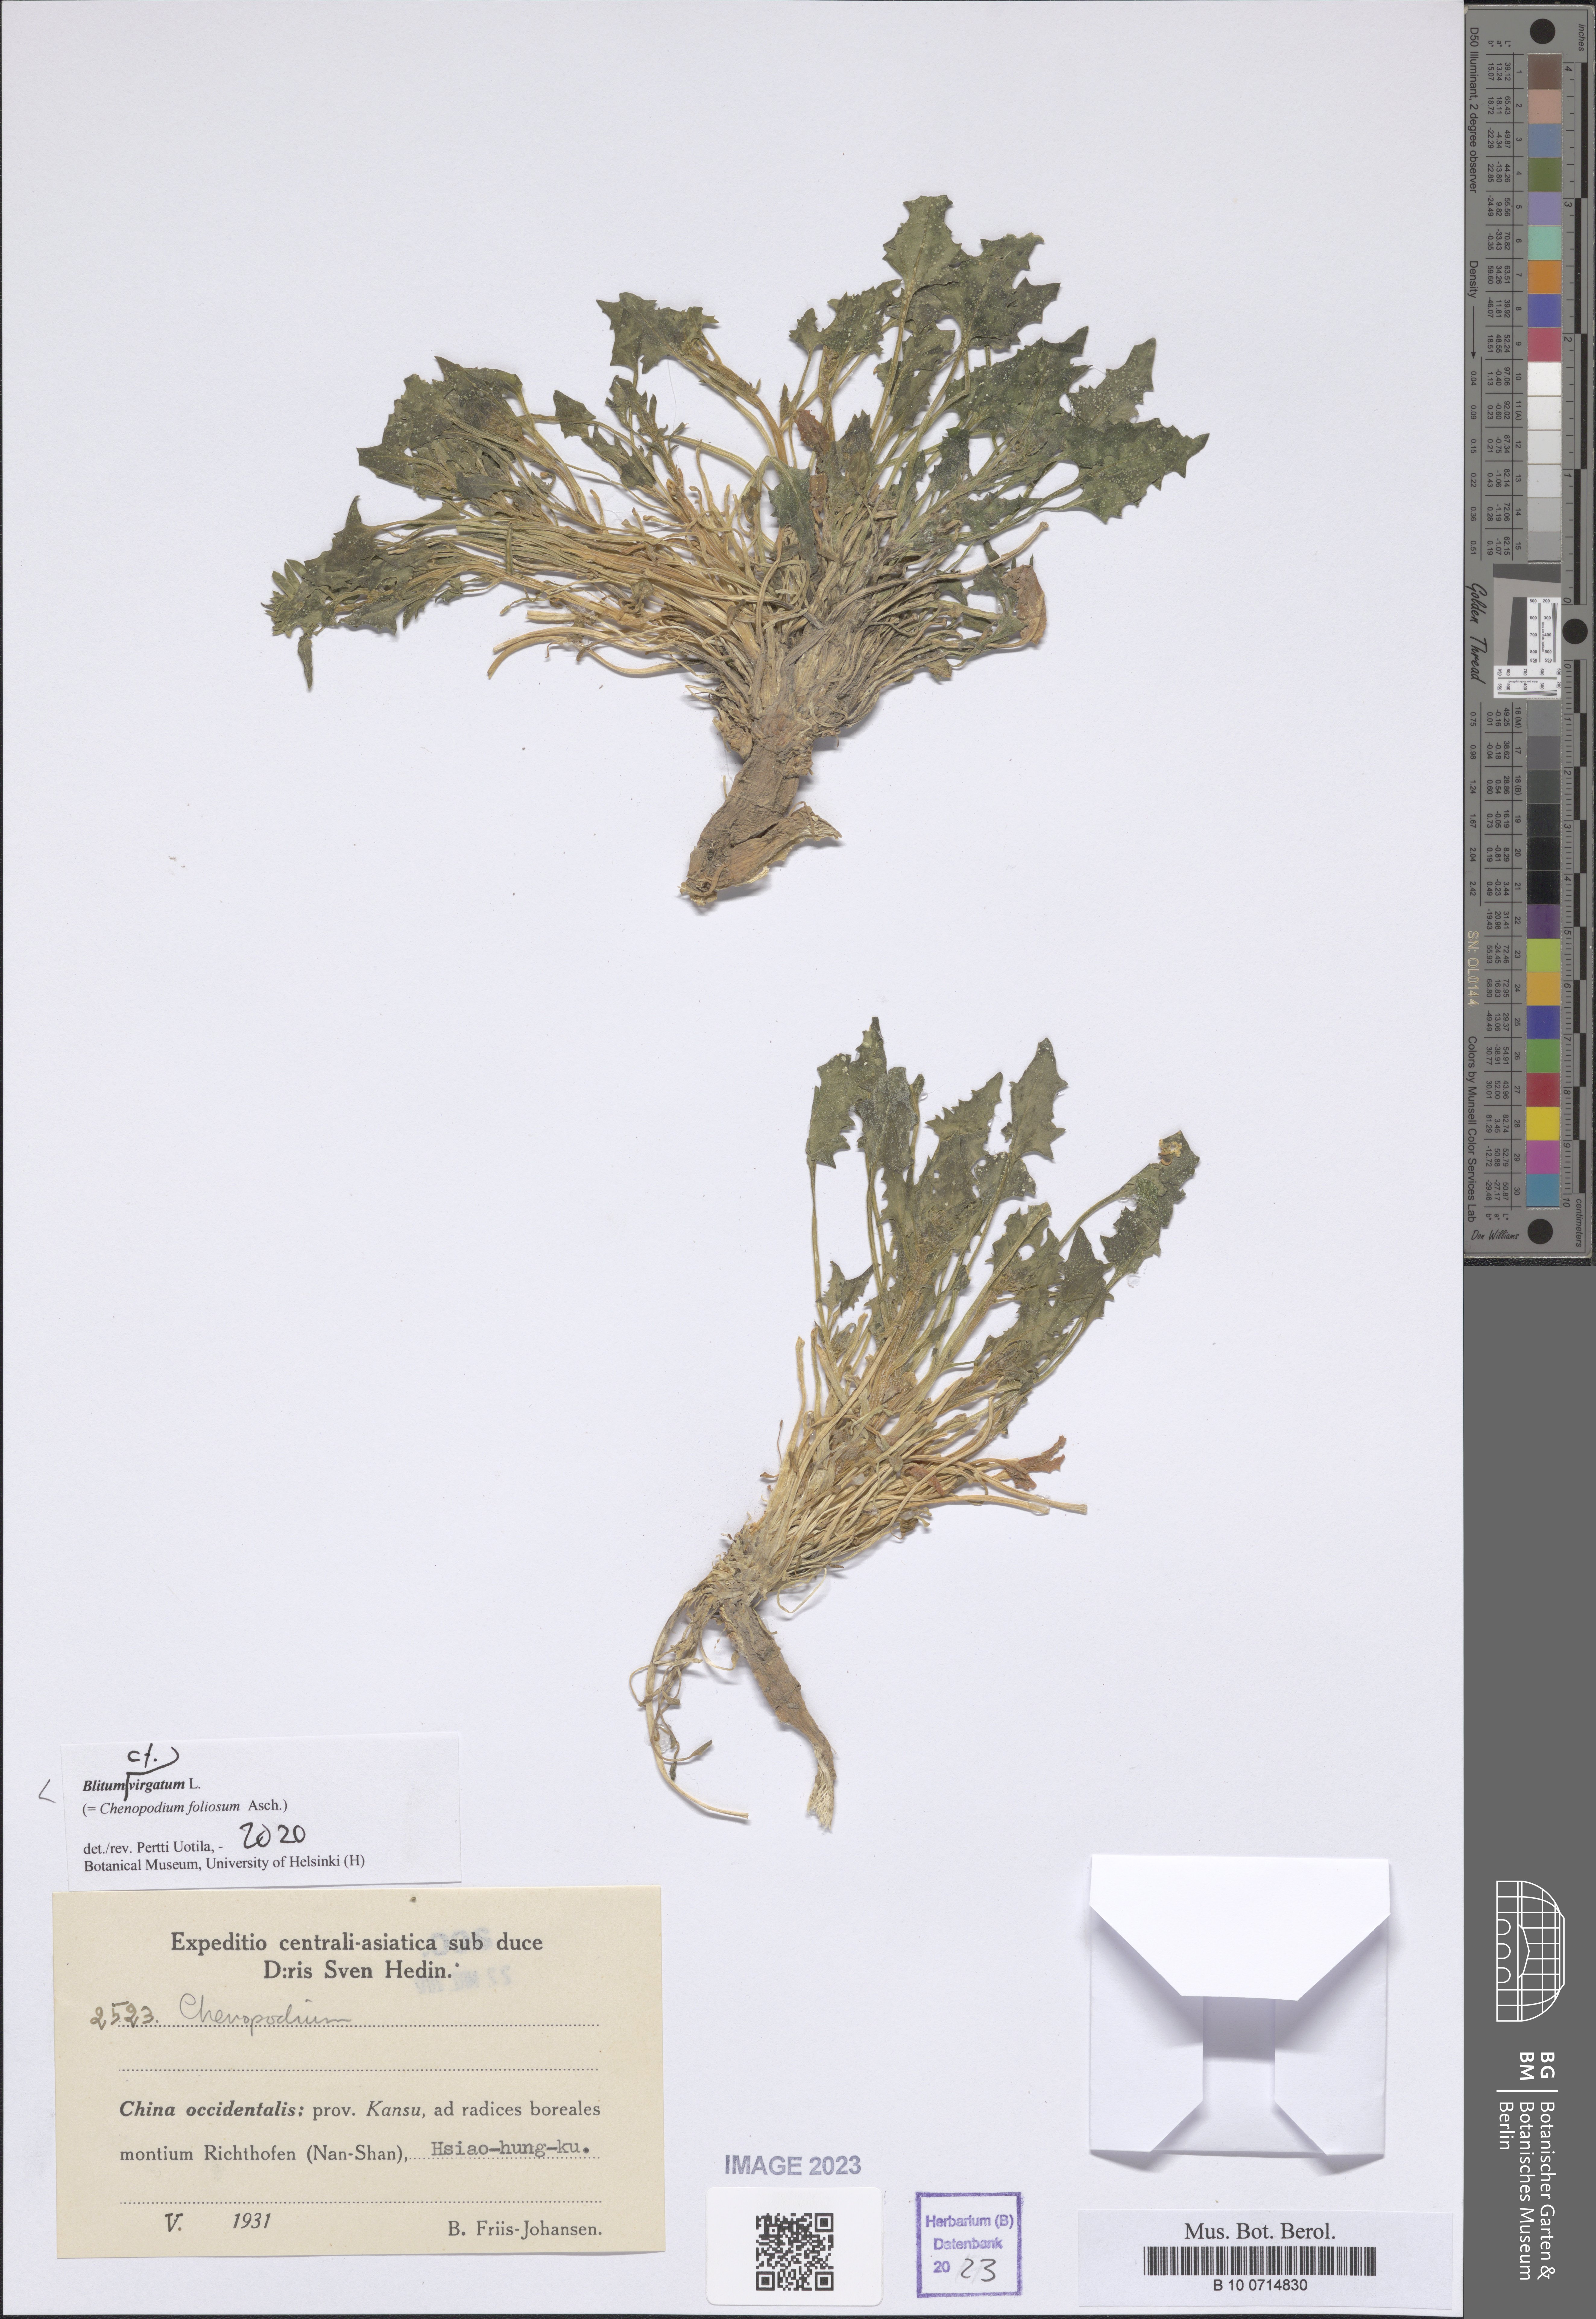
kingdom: Plantae
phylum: Tracheophyta
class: Magnoliopsida
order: Caryophyllales
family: Amaranthaceae
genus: Blitum
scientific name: Blitum virgatum
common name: Strawberry goosefoot
